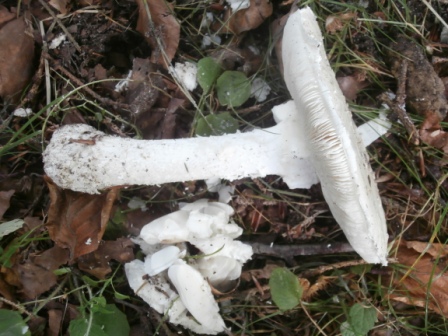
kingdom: Fungi
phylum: Basidiomycota
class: Agaricomycetes
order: Agaricales
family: Amanitaceae
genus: Amanita
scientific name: Amanita
